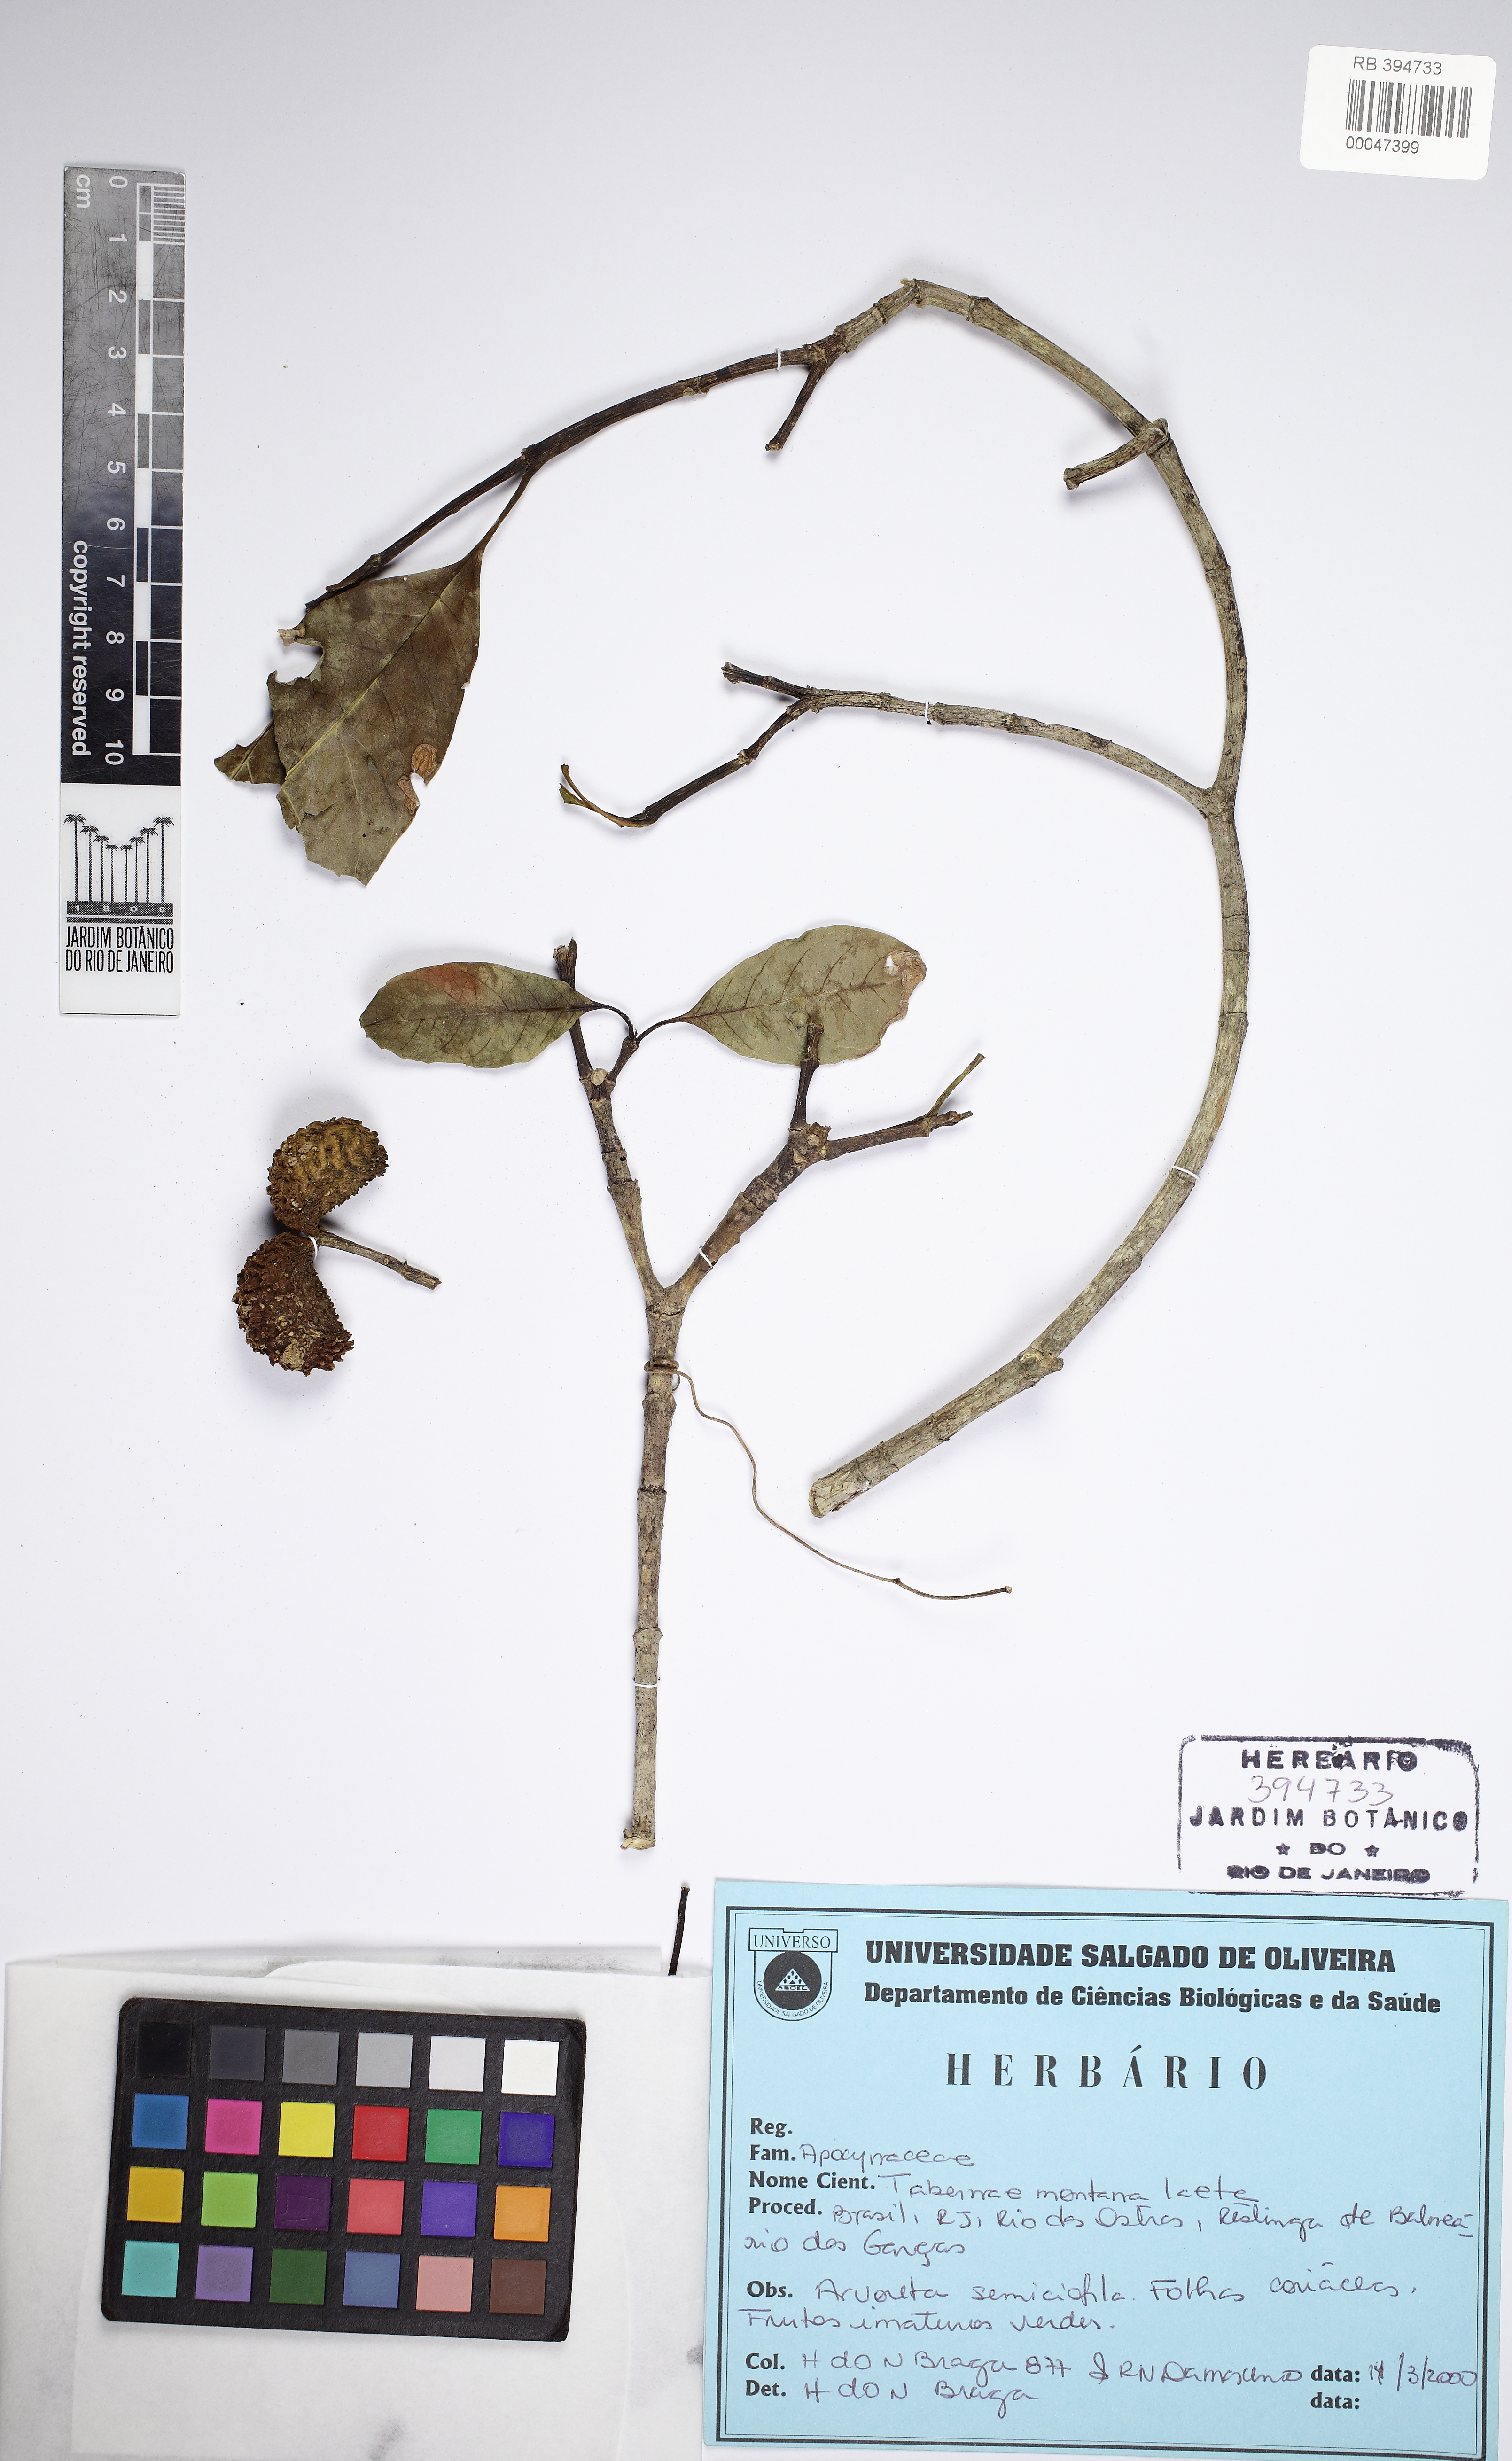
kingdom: Plantae
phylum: Tracheophyta
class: Magnoliopsida
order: Gentianales
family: Apocynaceae
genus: Tabernaemontana
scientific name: Tabernaemontana laeta
